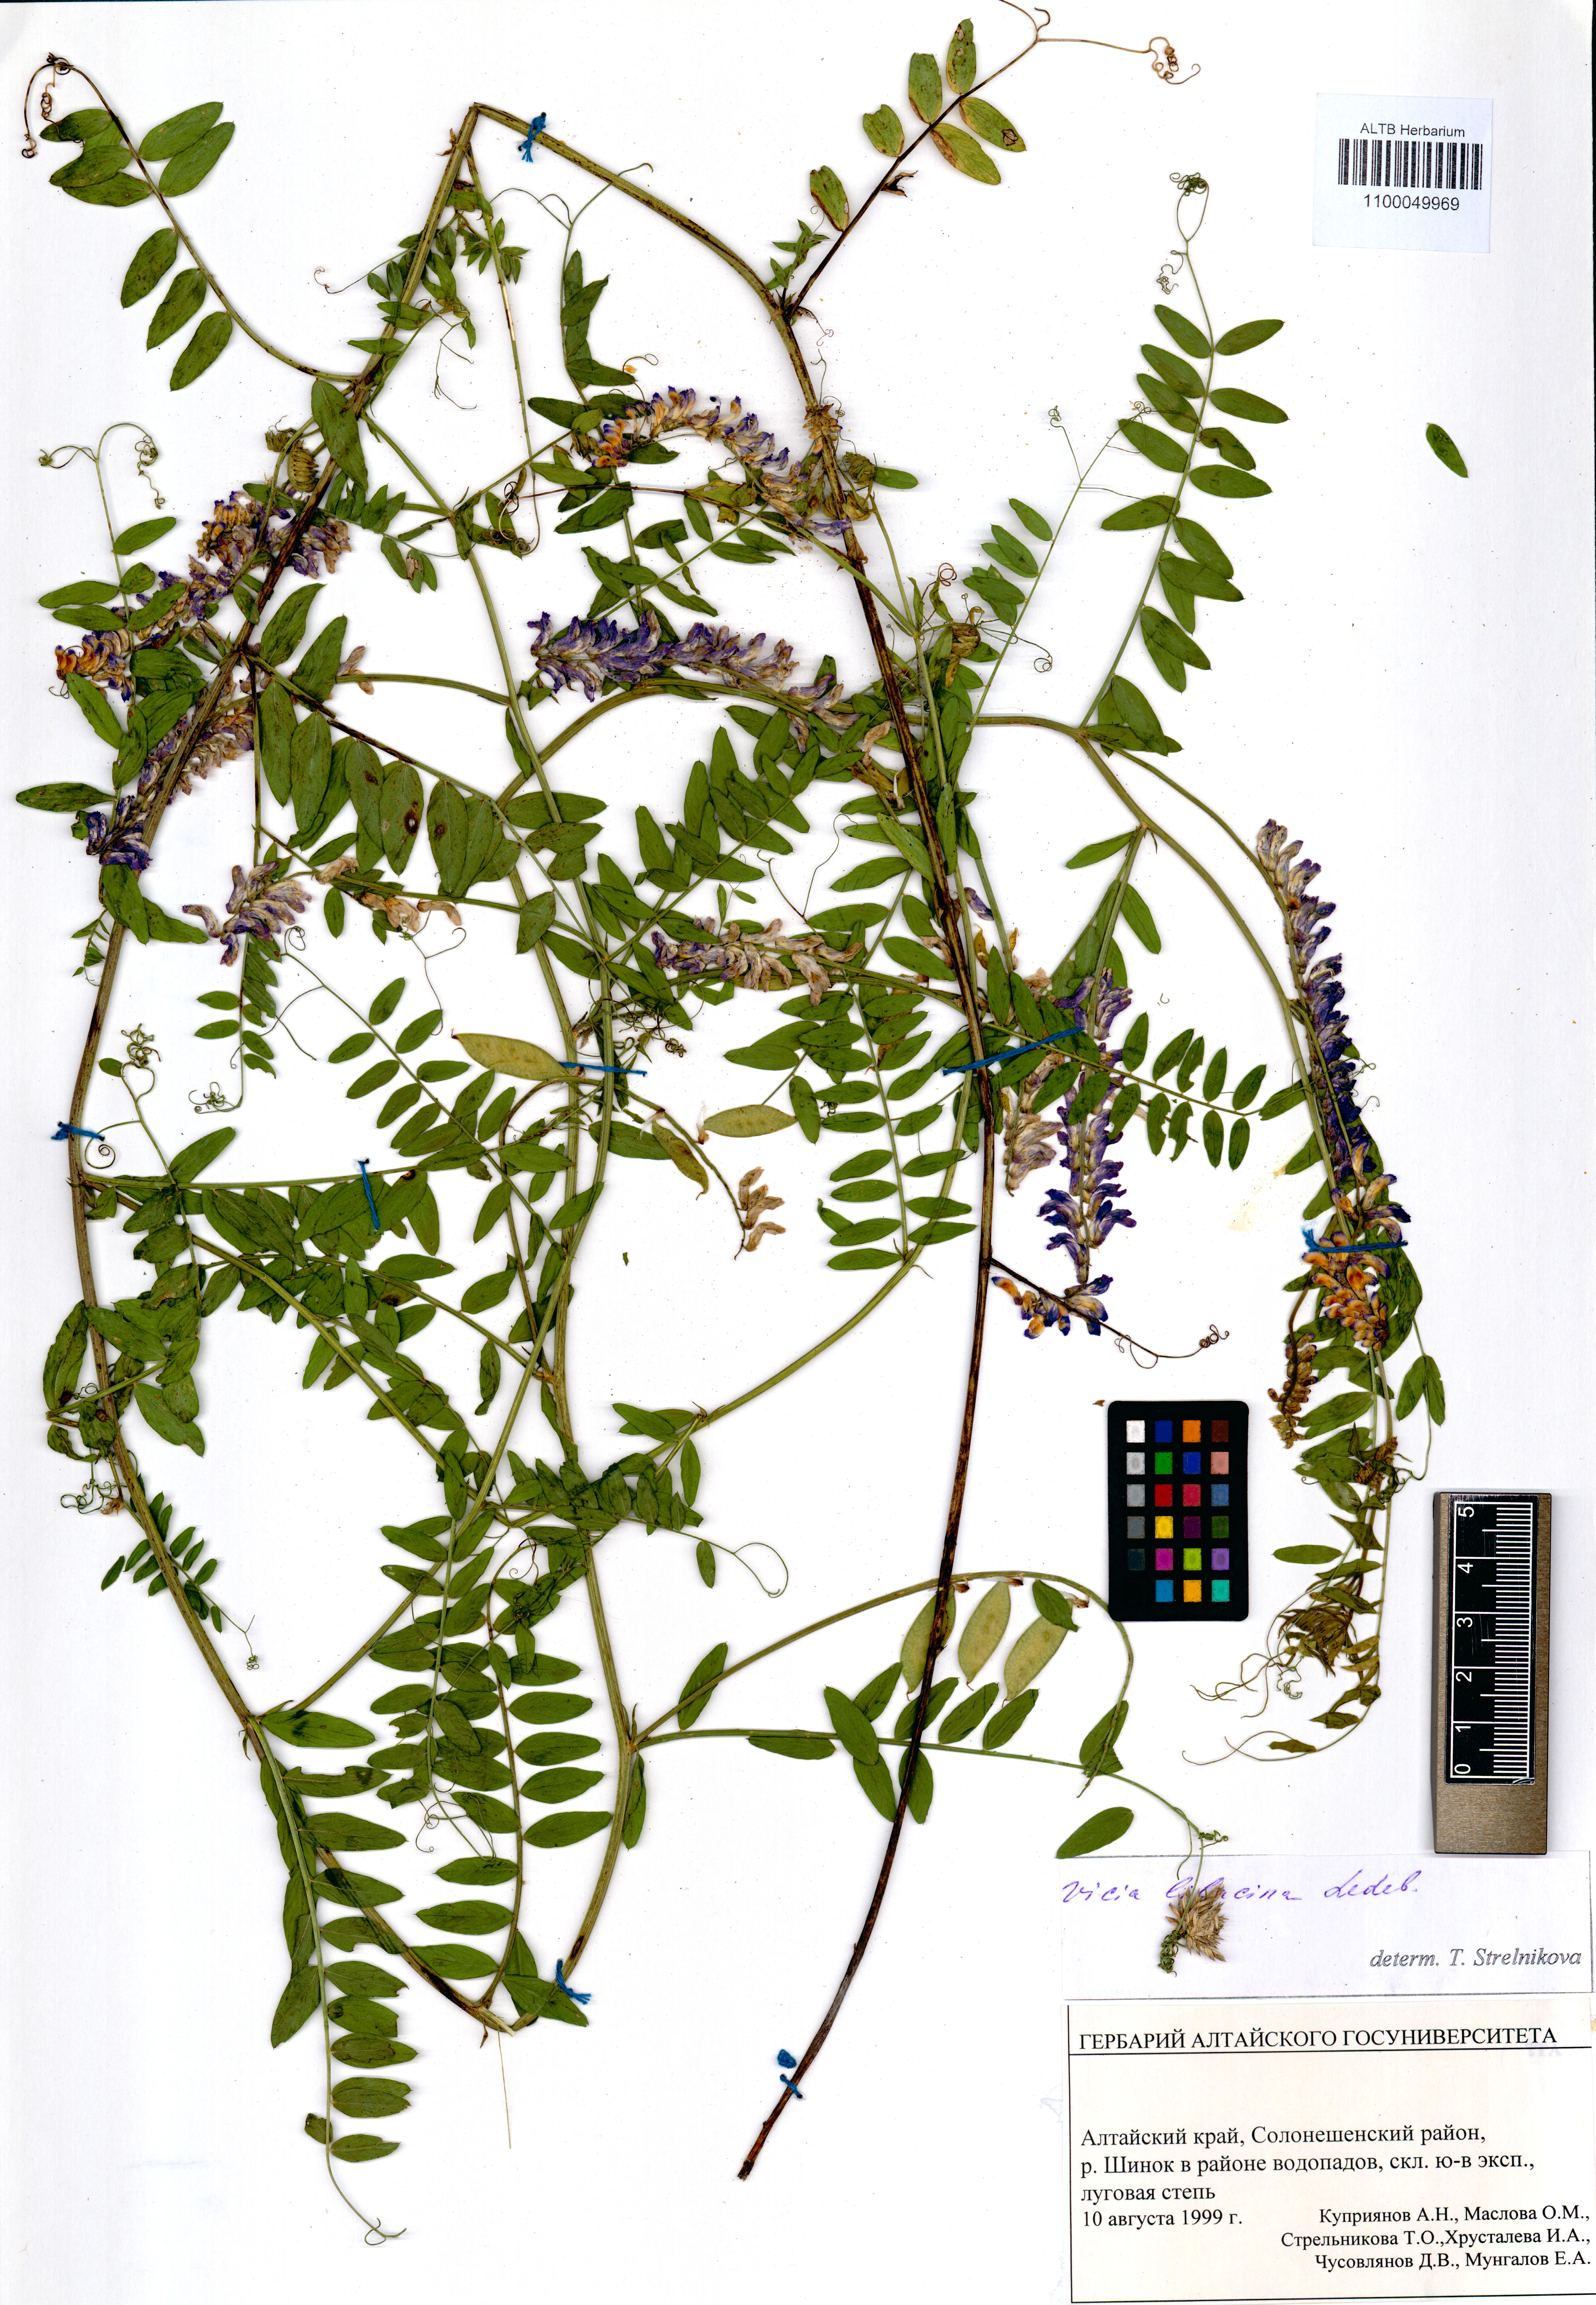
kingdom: Plantae
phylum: Tracheophyta
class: Magnoliopsida
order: Fabales
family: Fabaceae
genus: Vicia
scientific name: Vicia lilacina
